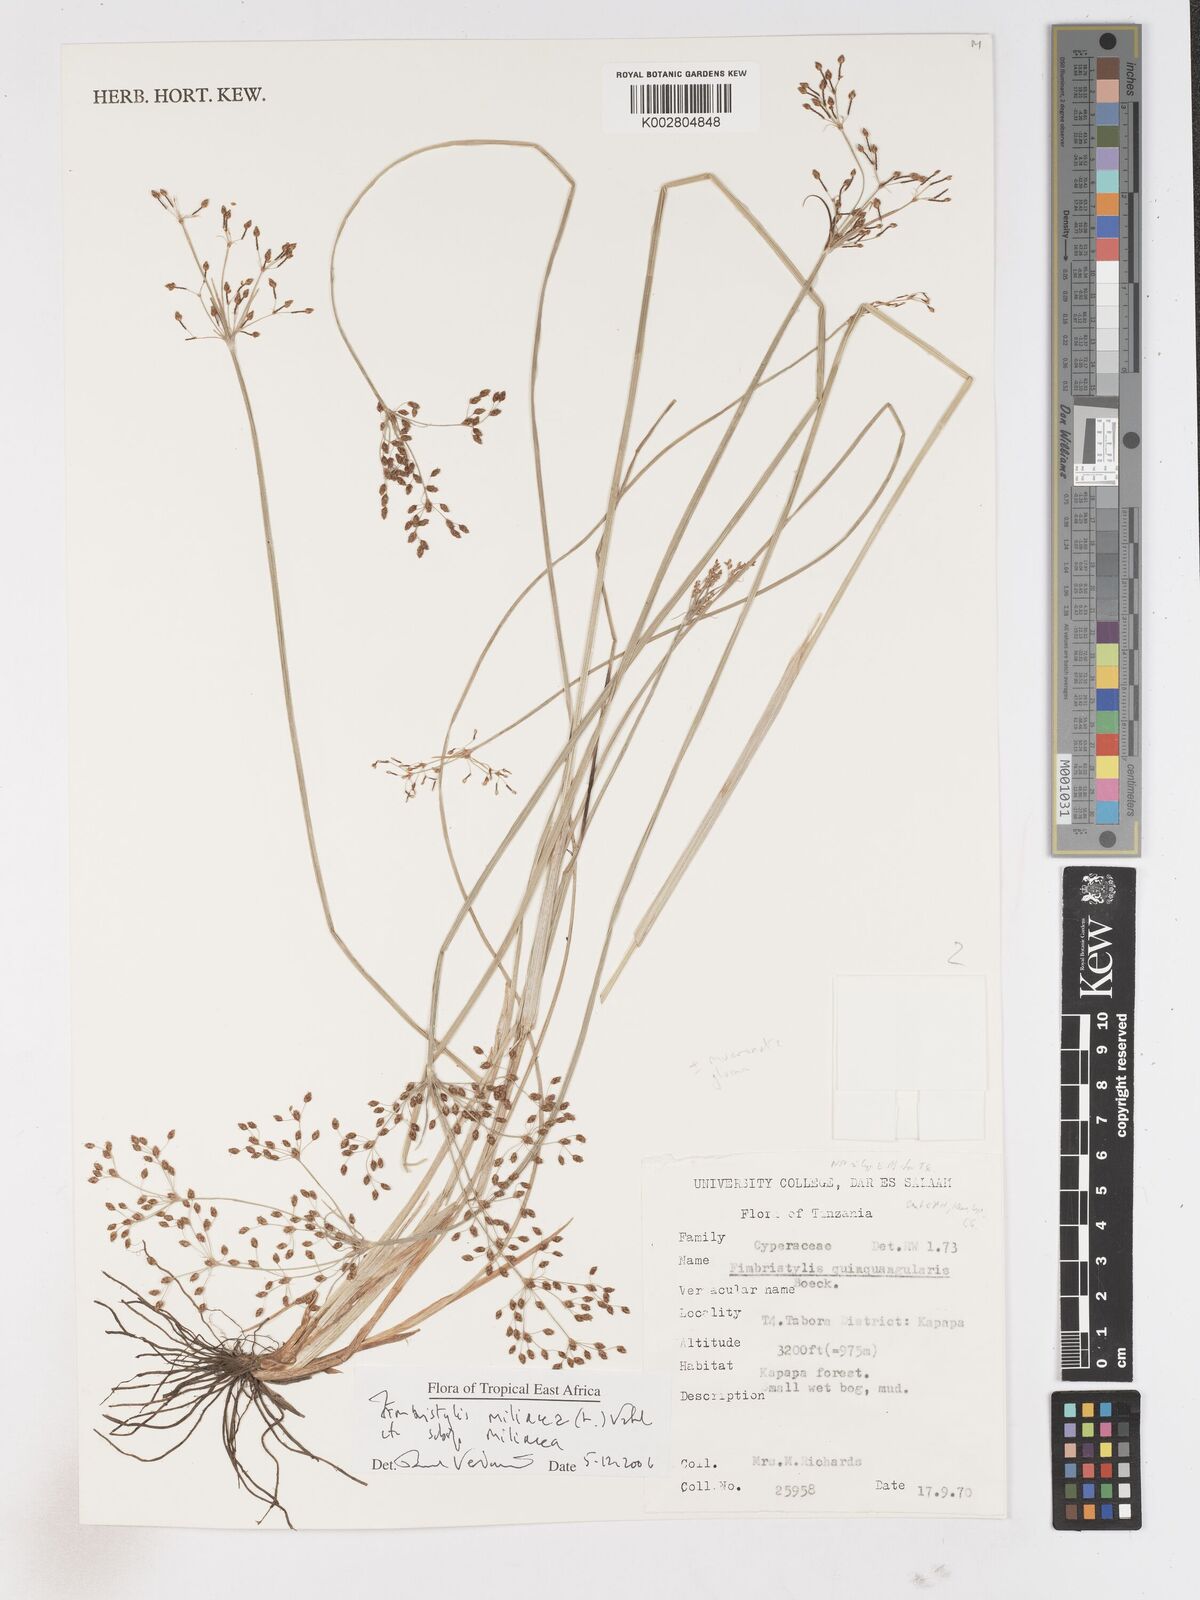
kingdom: Plantae
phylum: Tracheophyta
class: Liliopsida
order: Poales
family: Cyperaceae
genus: Fimbristylis
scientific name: Fimbristylis quinquangularis
